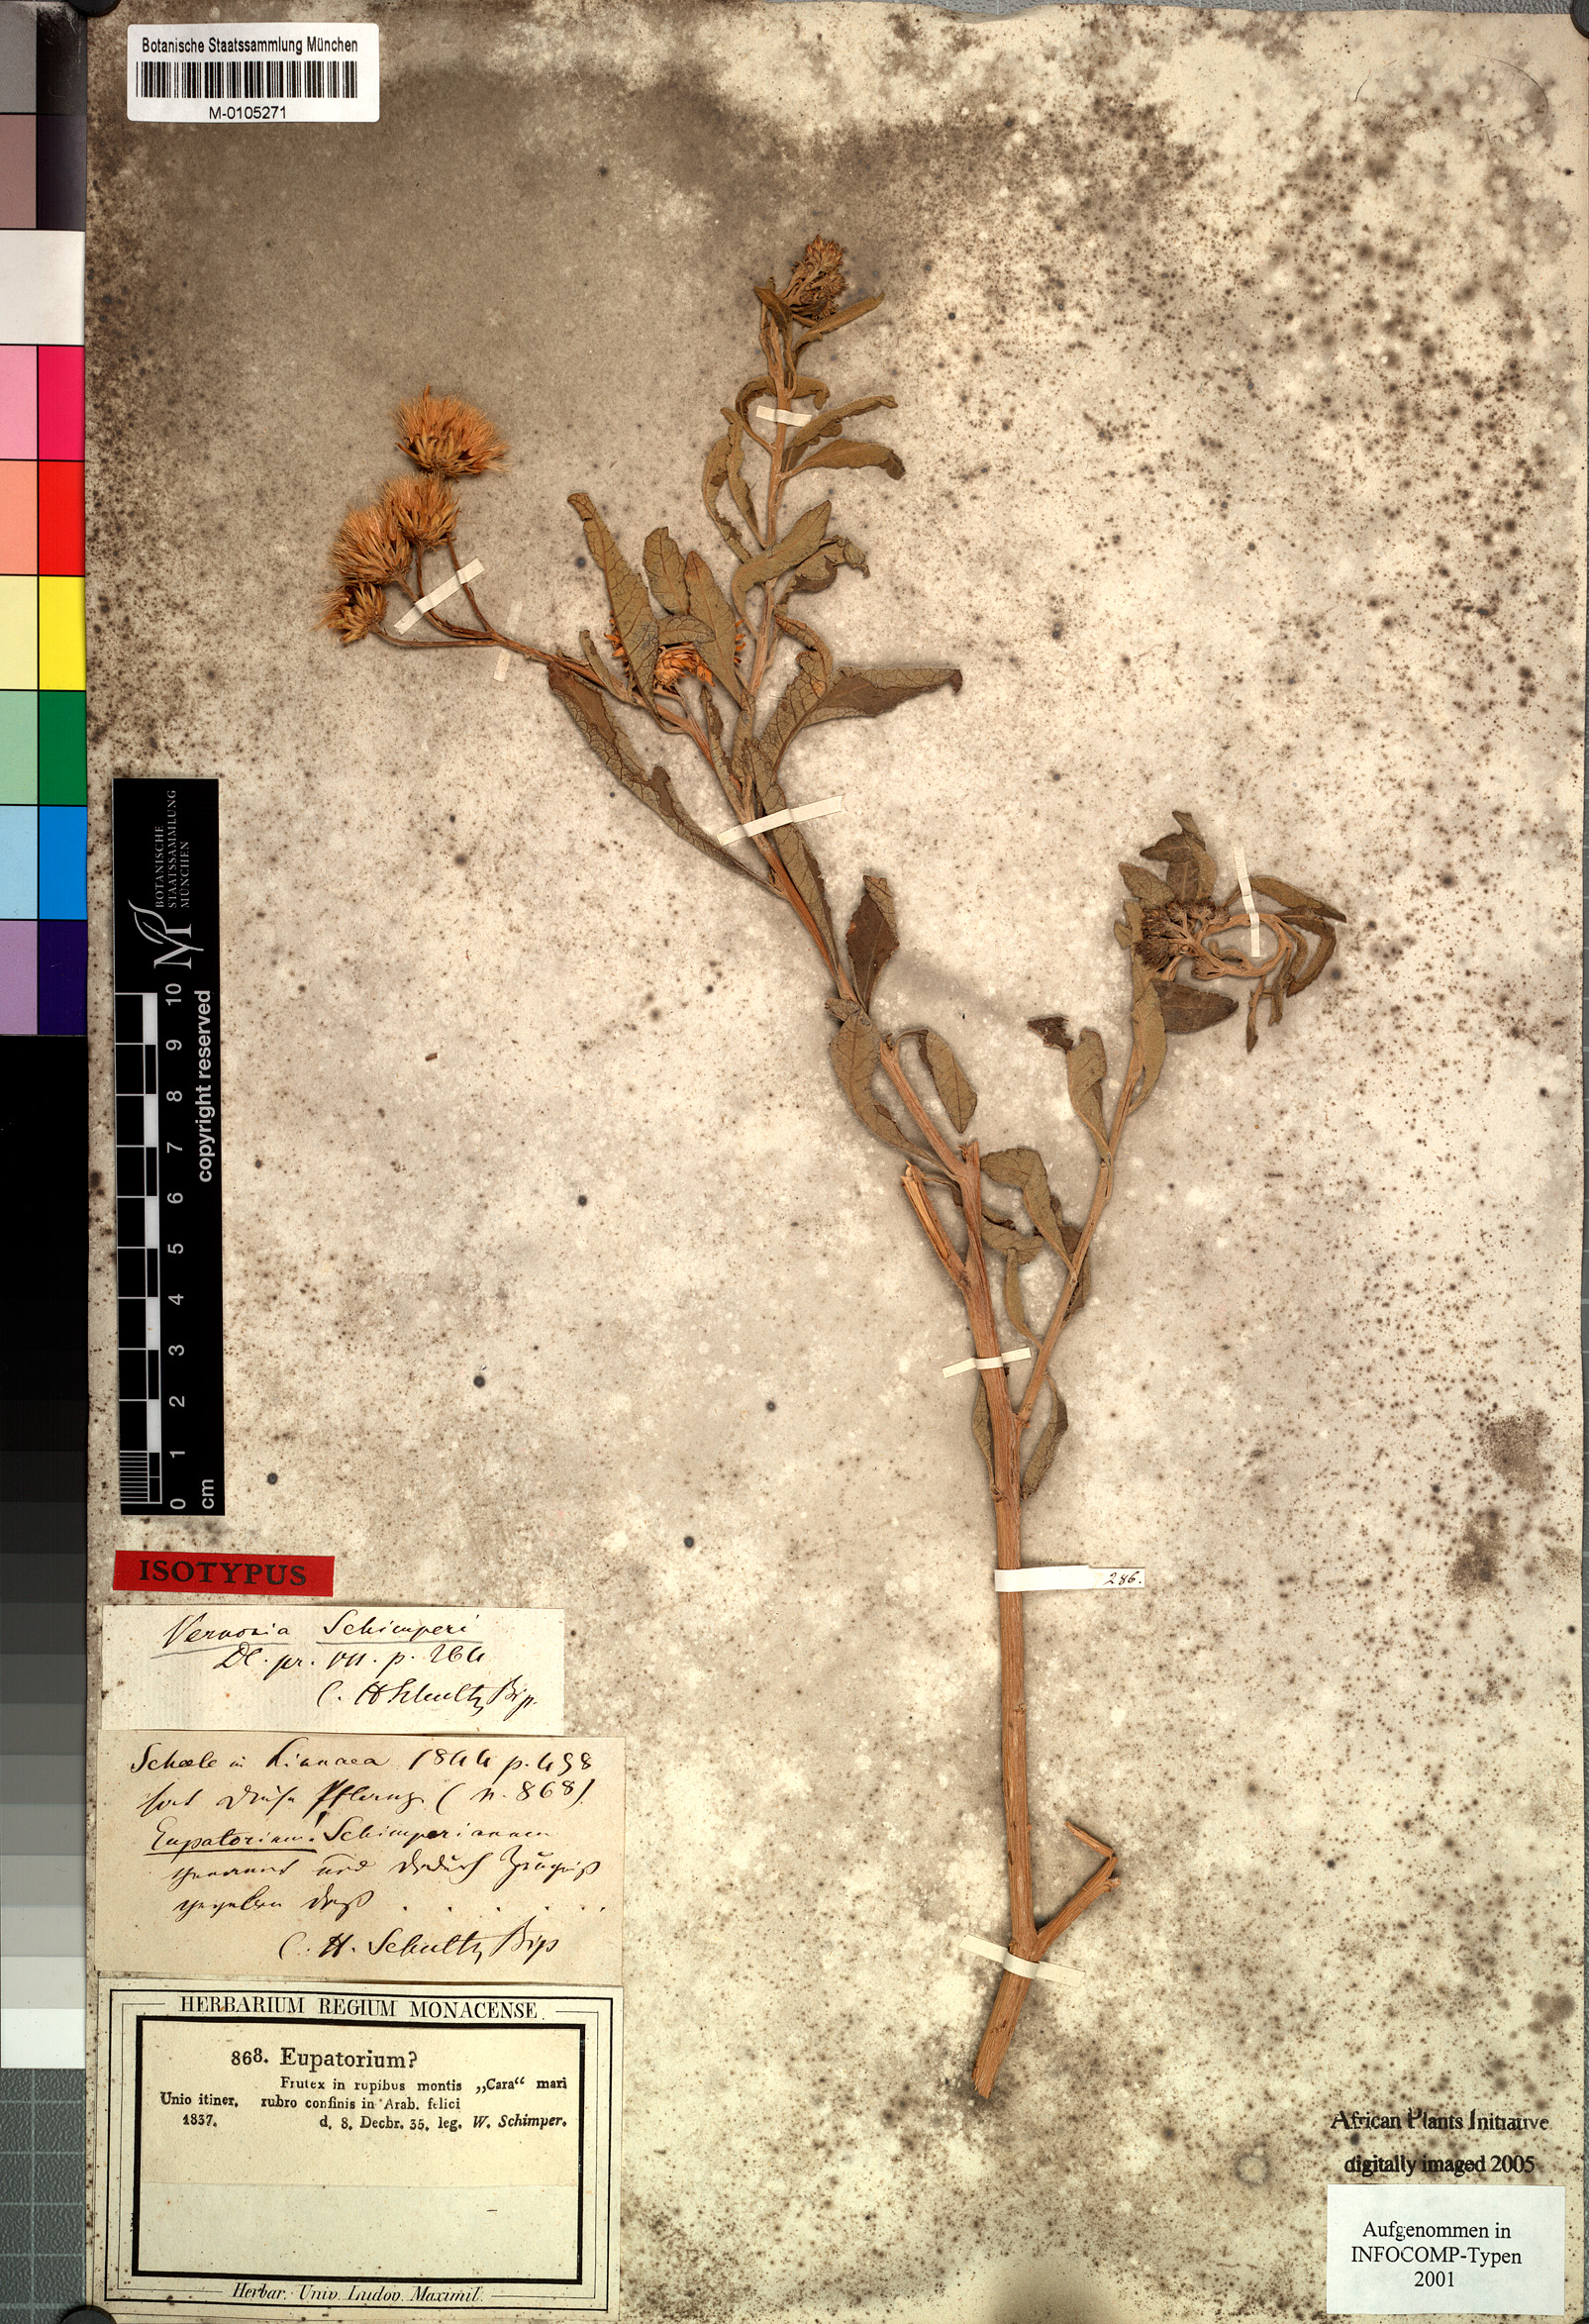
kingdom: Plantae
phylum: Tracheophyta
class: Magnoliopsida
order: Asterales
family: Asteraceae
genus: Baccharoides
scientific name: Baccharoides schimperi
